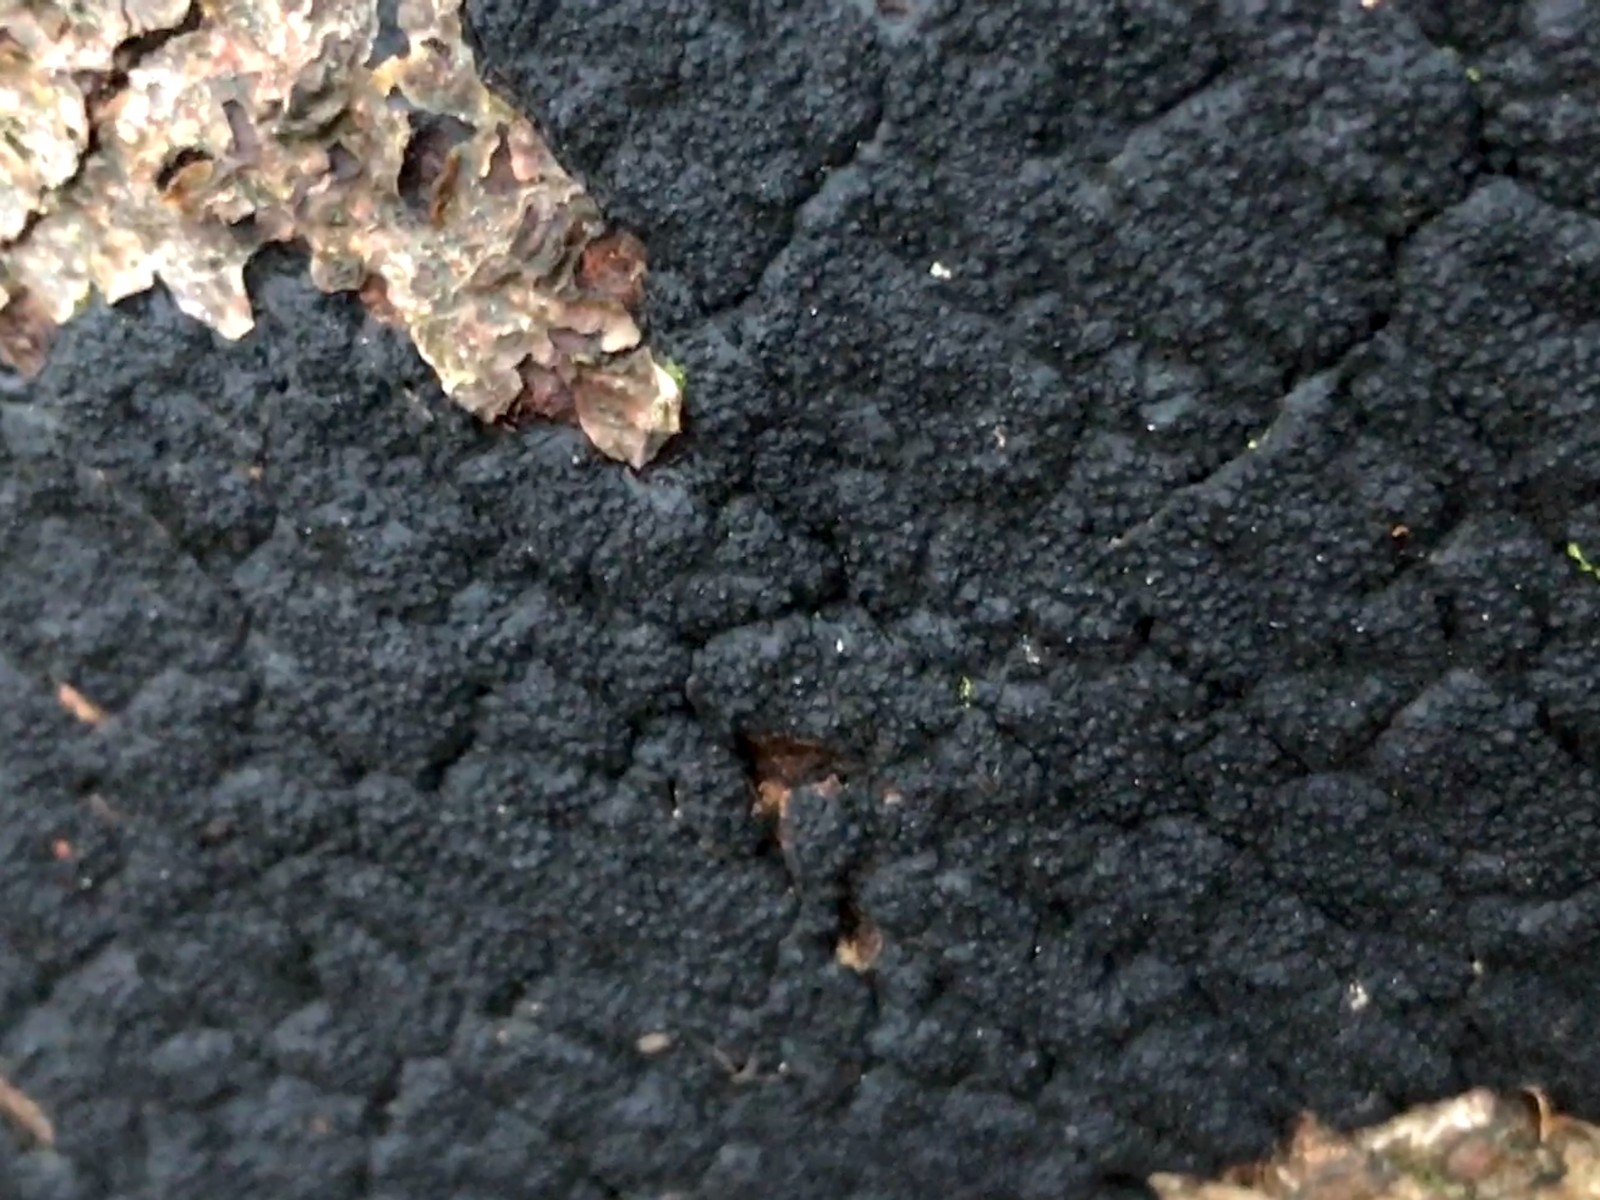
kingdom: Fungi
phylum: Ascomycota
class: Sordariomycetes
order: Xylariales
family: Diatrypaceae
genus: Eutypa
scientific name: Eutypa spinosa
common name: grov kulskorpe
